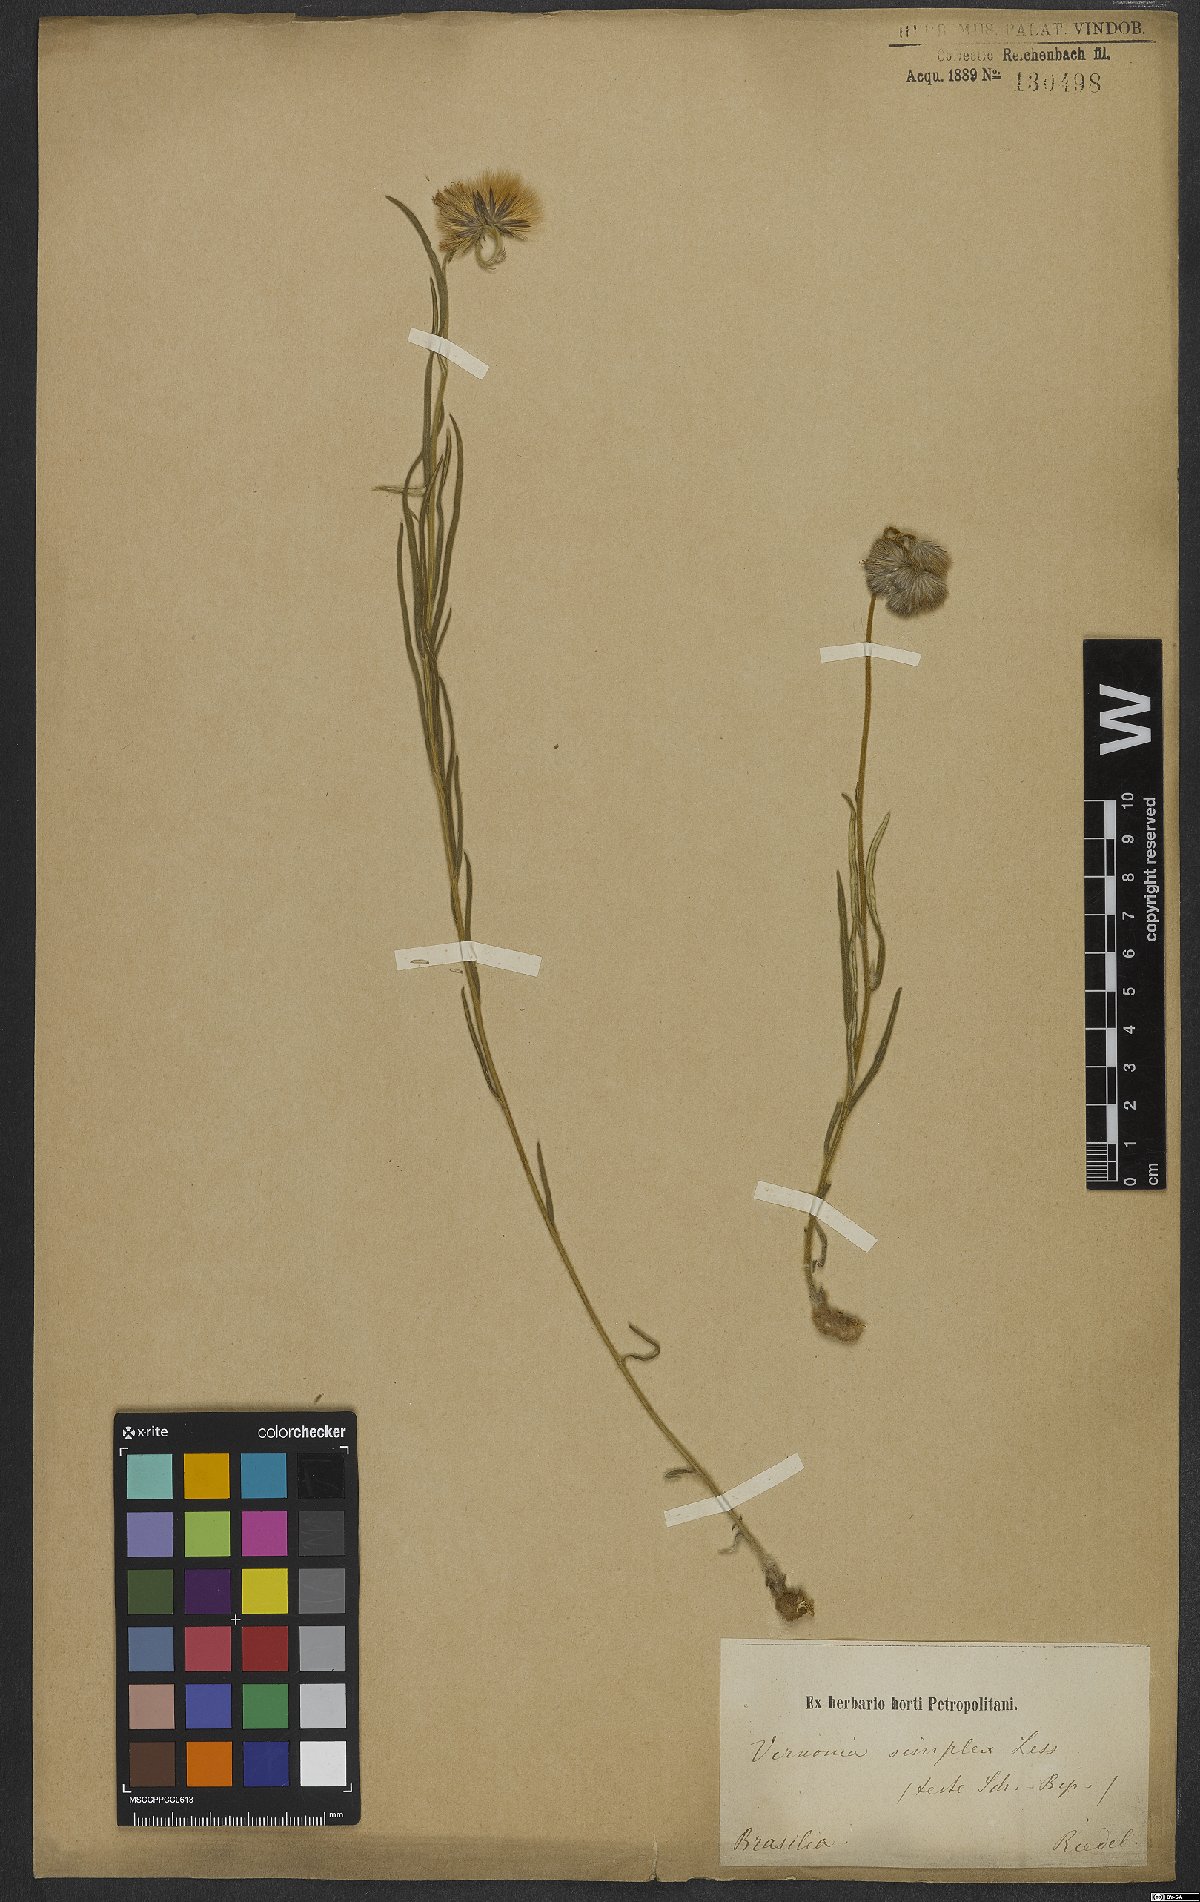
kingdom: Plantae
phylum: Tracheophyta
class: Magnoliopsida
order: Asterales
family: Asteraceae
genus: Chrysolaena
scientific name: Chrysolaena simplex
